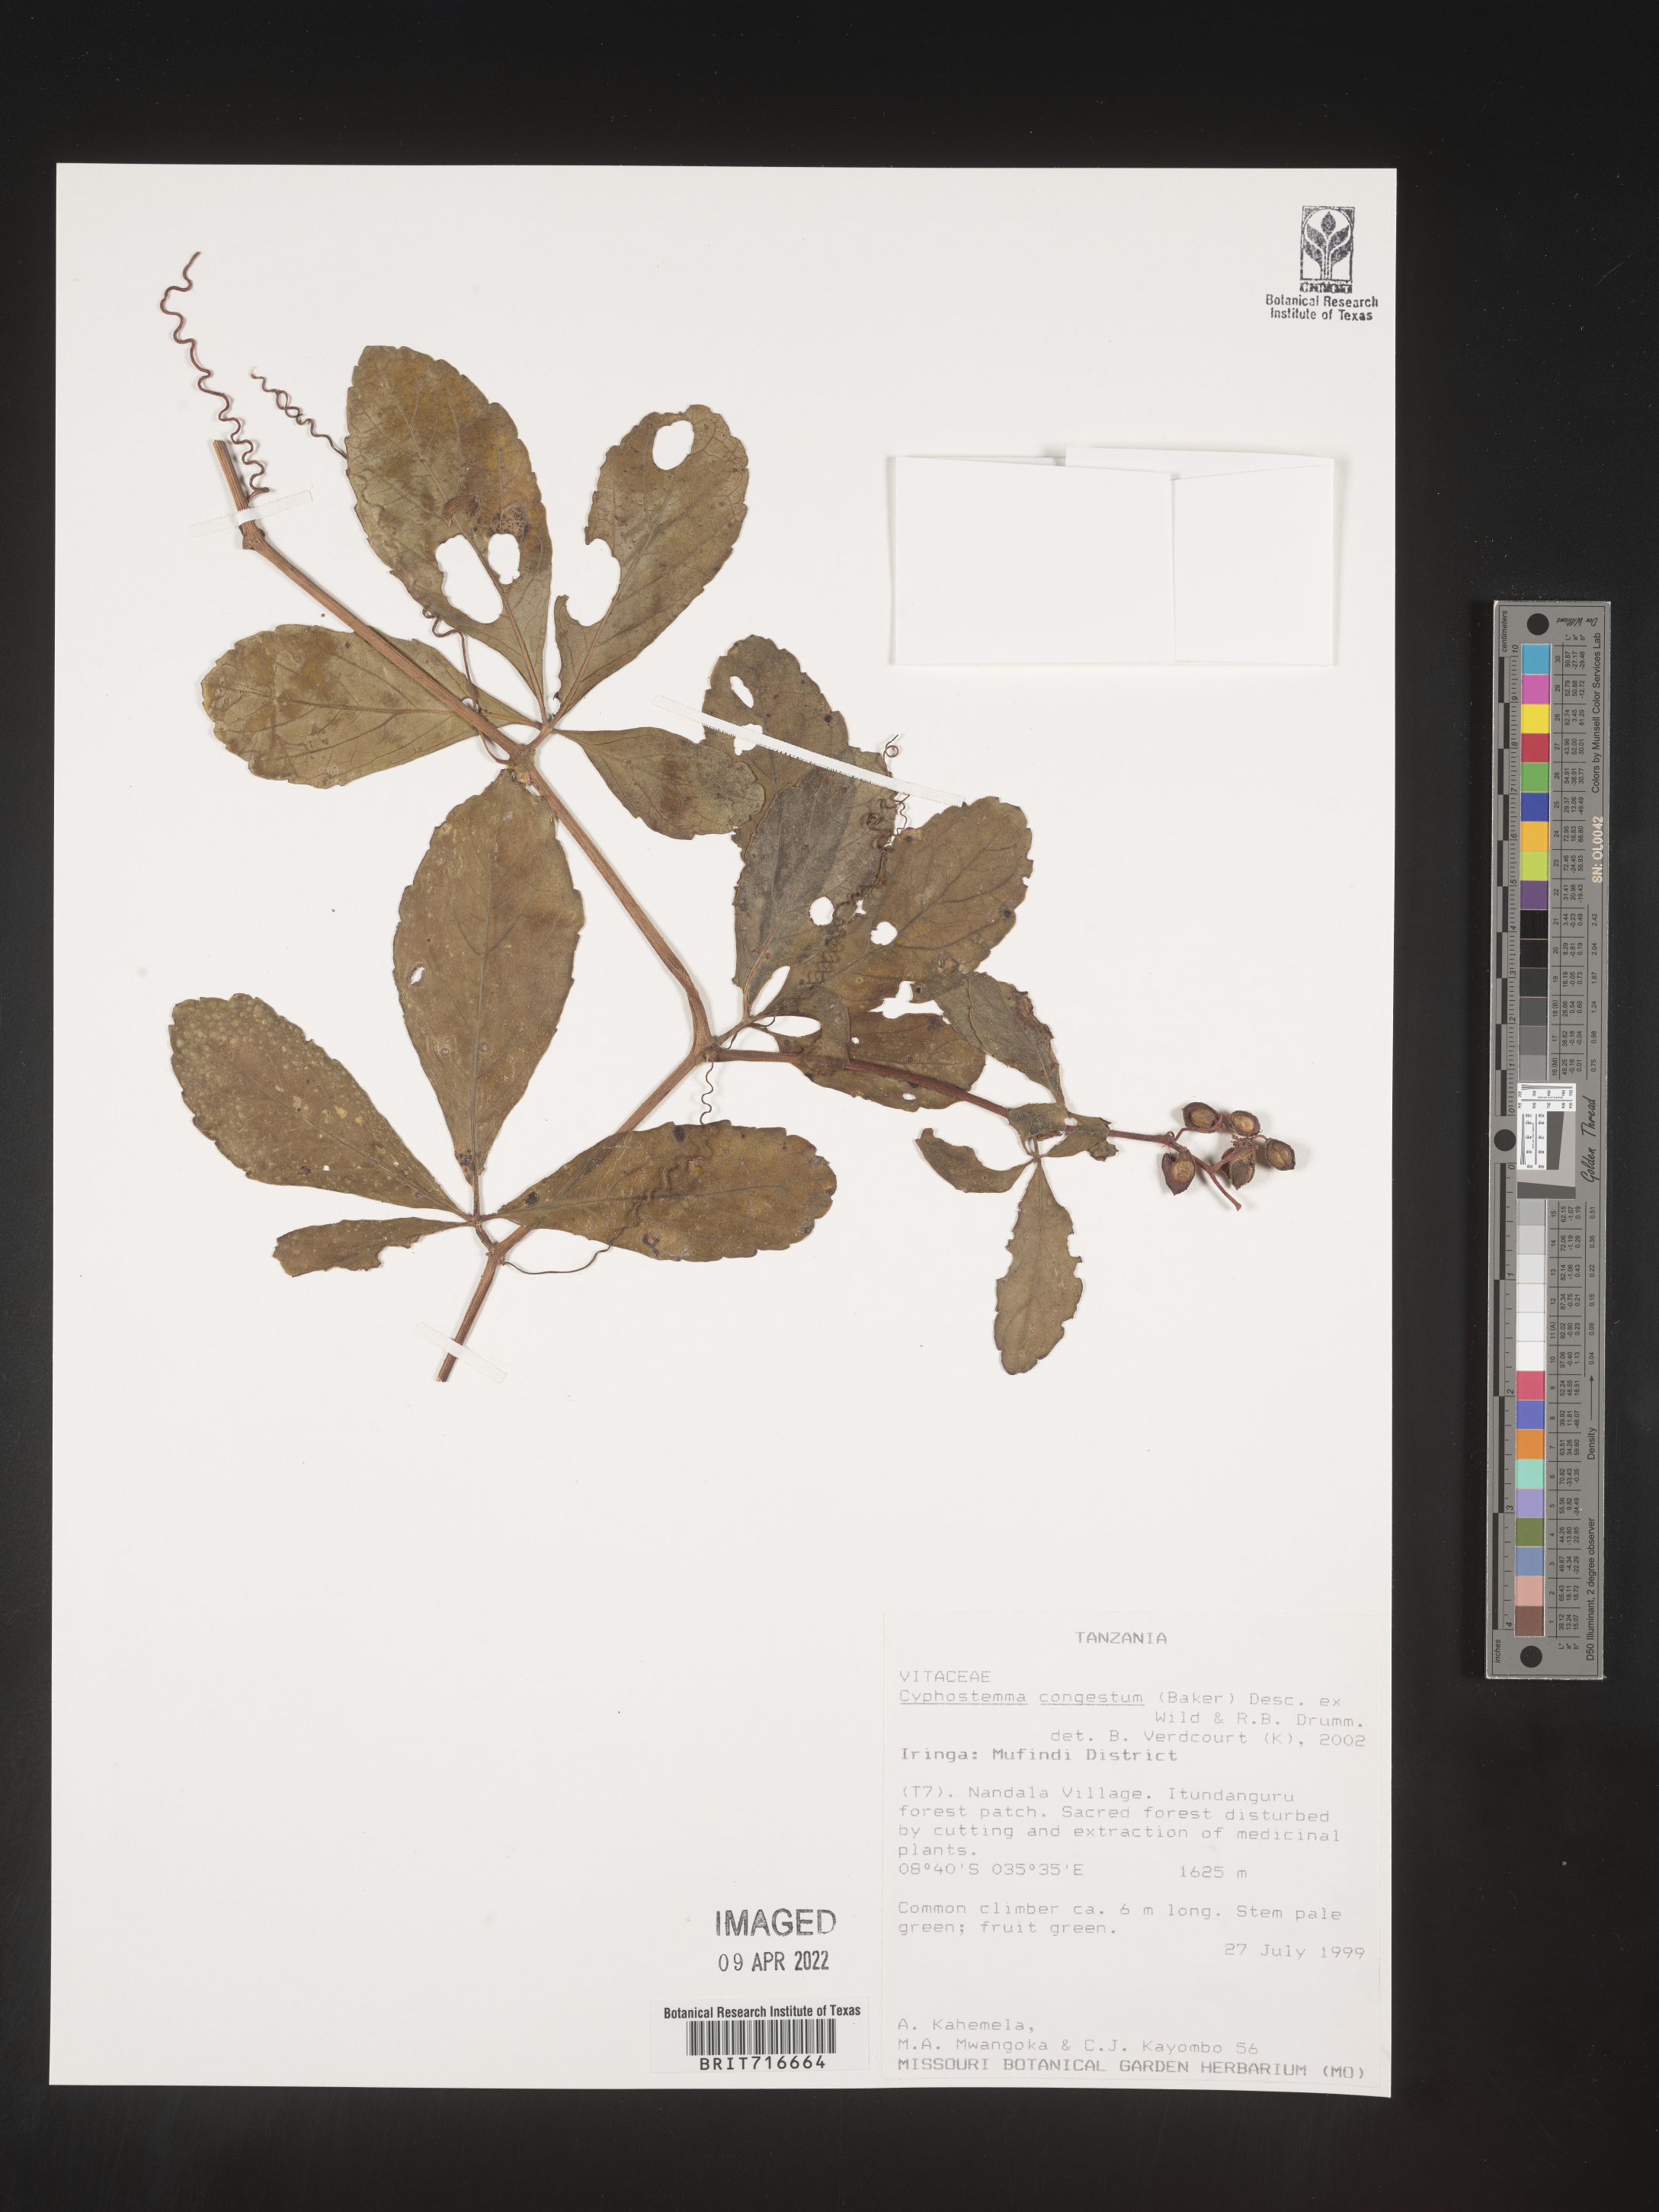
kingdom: Plantae
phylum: Tracheophyta
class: Magnoliopsida
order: Vitales
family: Vitaceae
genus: Cyphostemma
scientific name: Cyphostemma
